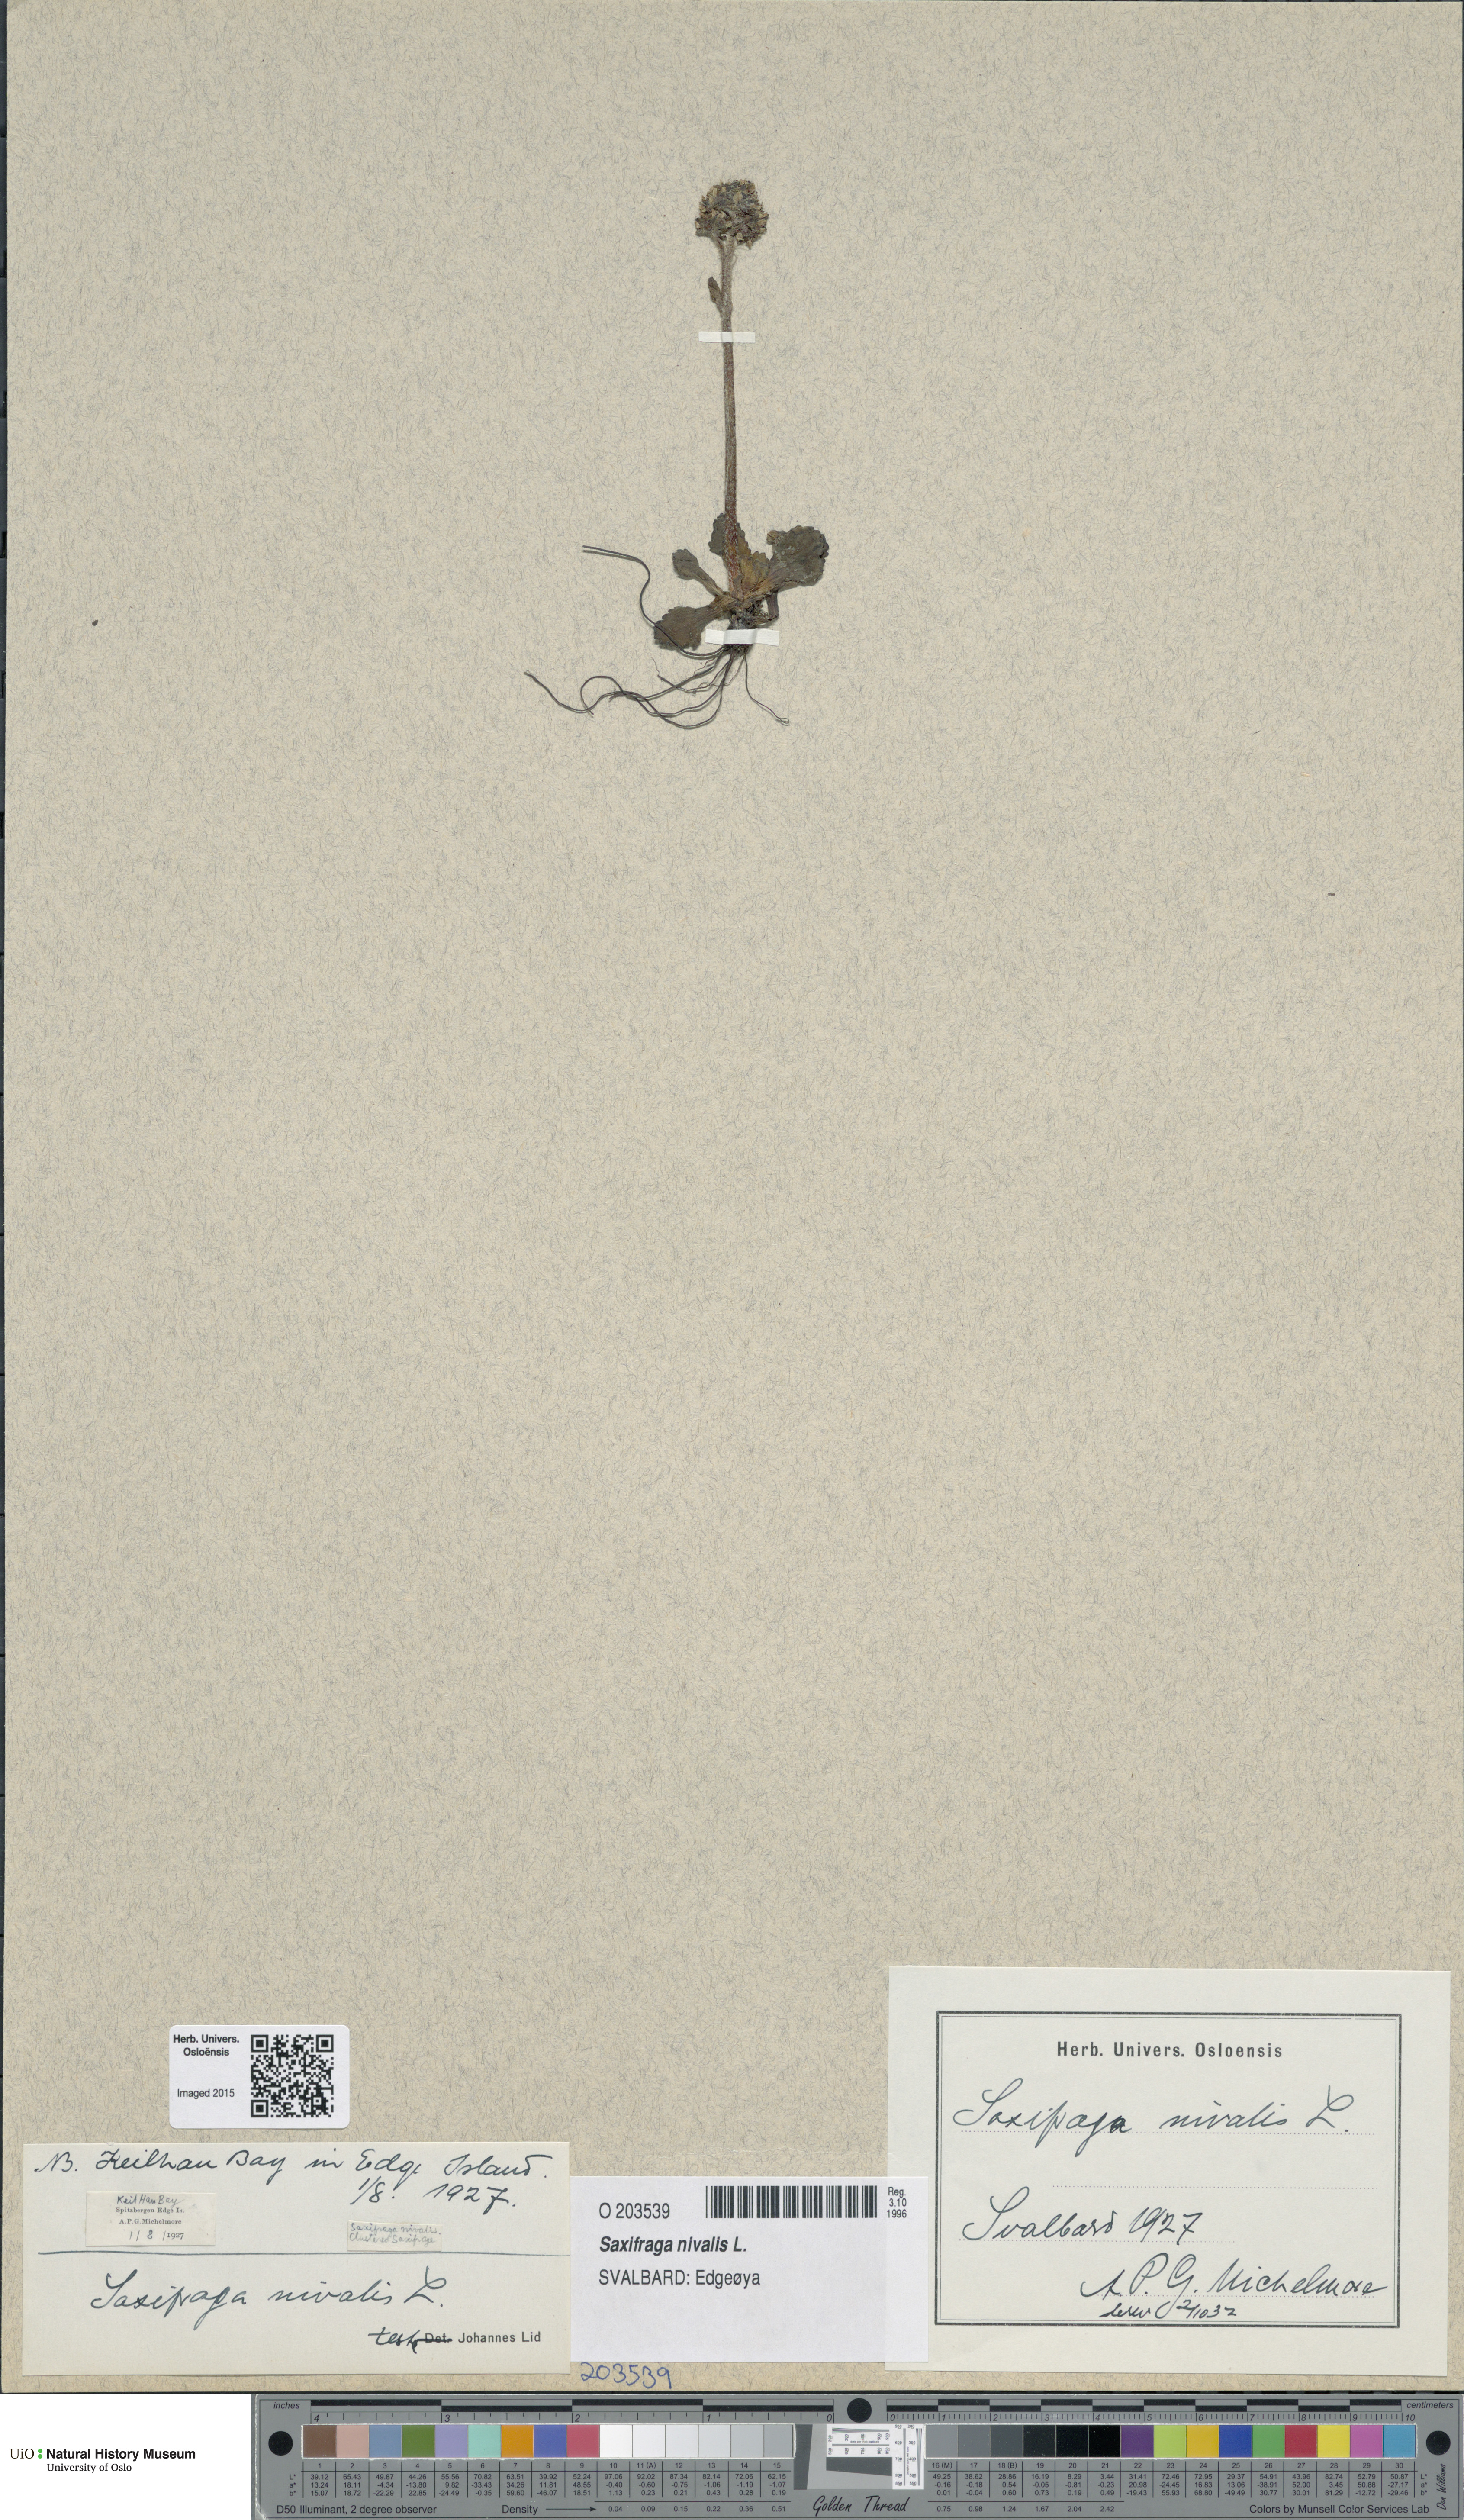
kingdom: Plantae
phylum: Tracheophyta
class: Magnoliopsida
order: Saxifragales
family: Saxifragaceae
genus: Micranthes
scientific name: Micranthes nivalis
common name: Alpine saxifrage
